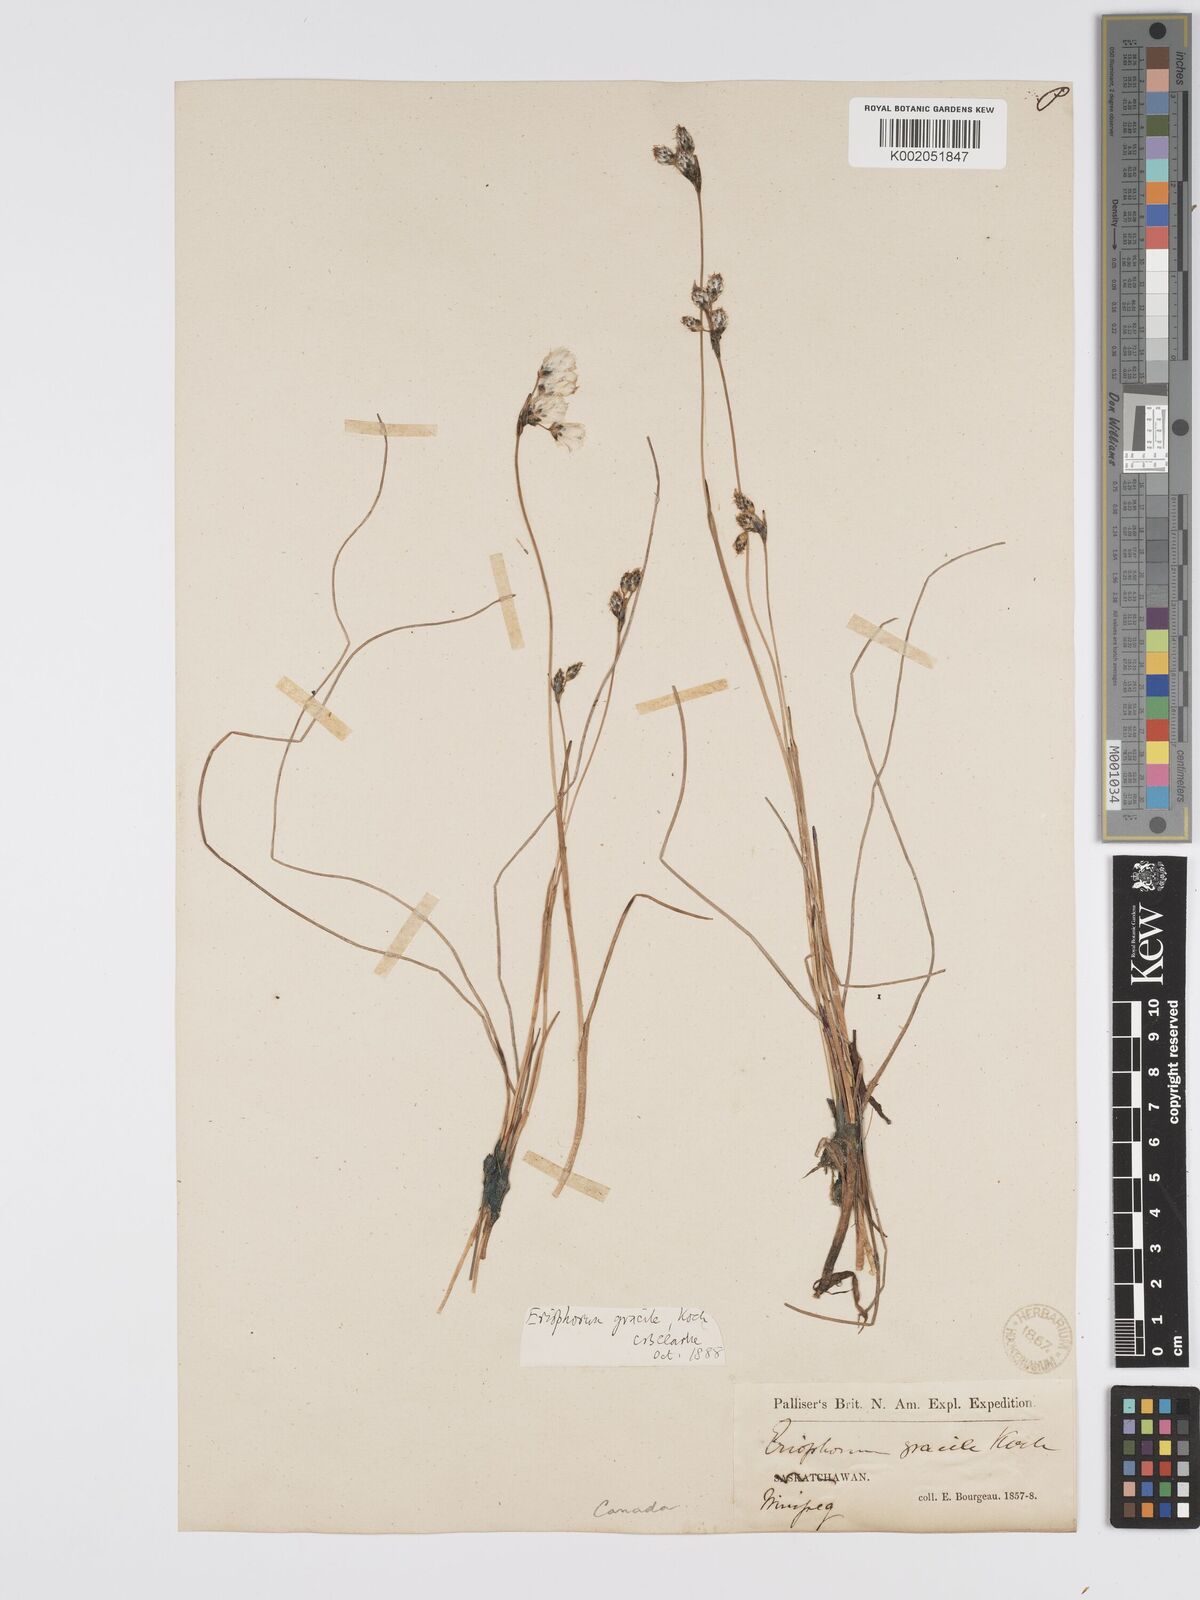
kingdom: Plantae
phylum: Tracheophyta
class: Liliopsida
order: Poales
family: Cyperaceae
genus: Eriophorum
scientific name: Eriophorum gracile
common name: Slender cottongrass
